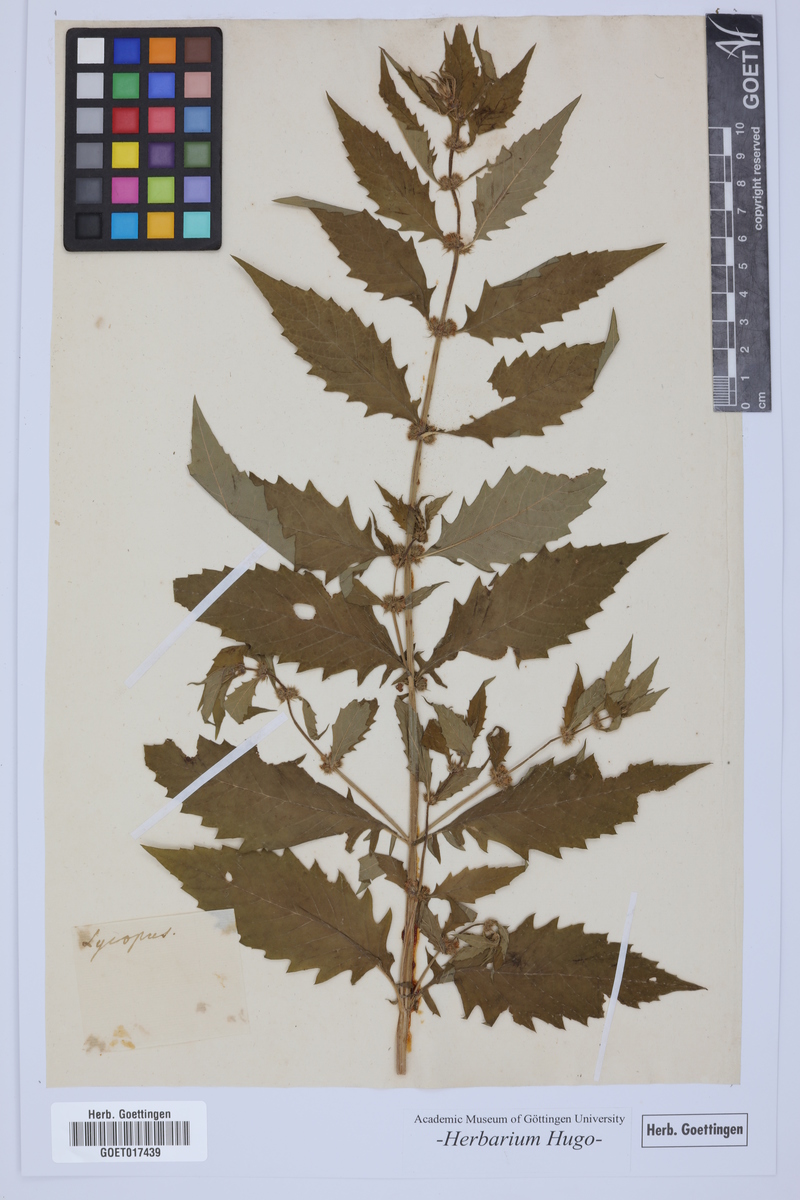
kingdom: Plantae
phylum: Tracheophyta
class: Magnoliopsida
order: Lamiales
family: Lamiaceae
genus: Lycopus
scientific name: Lycopus europaeus
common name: European bugleweed
